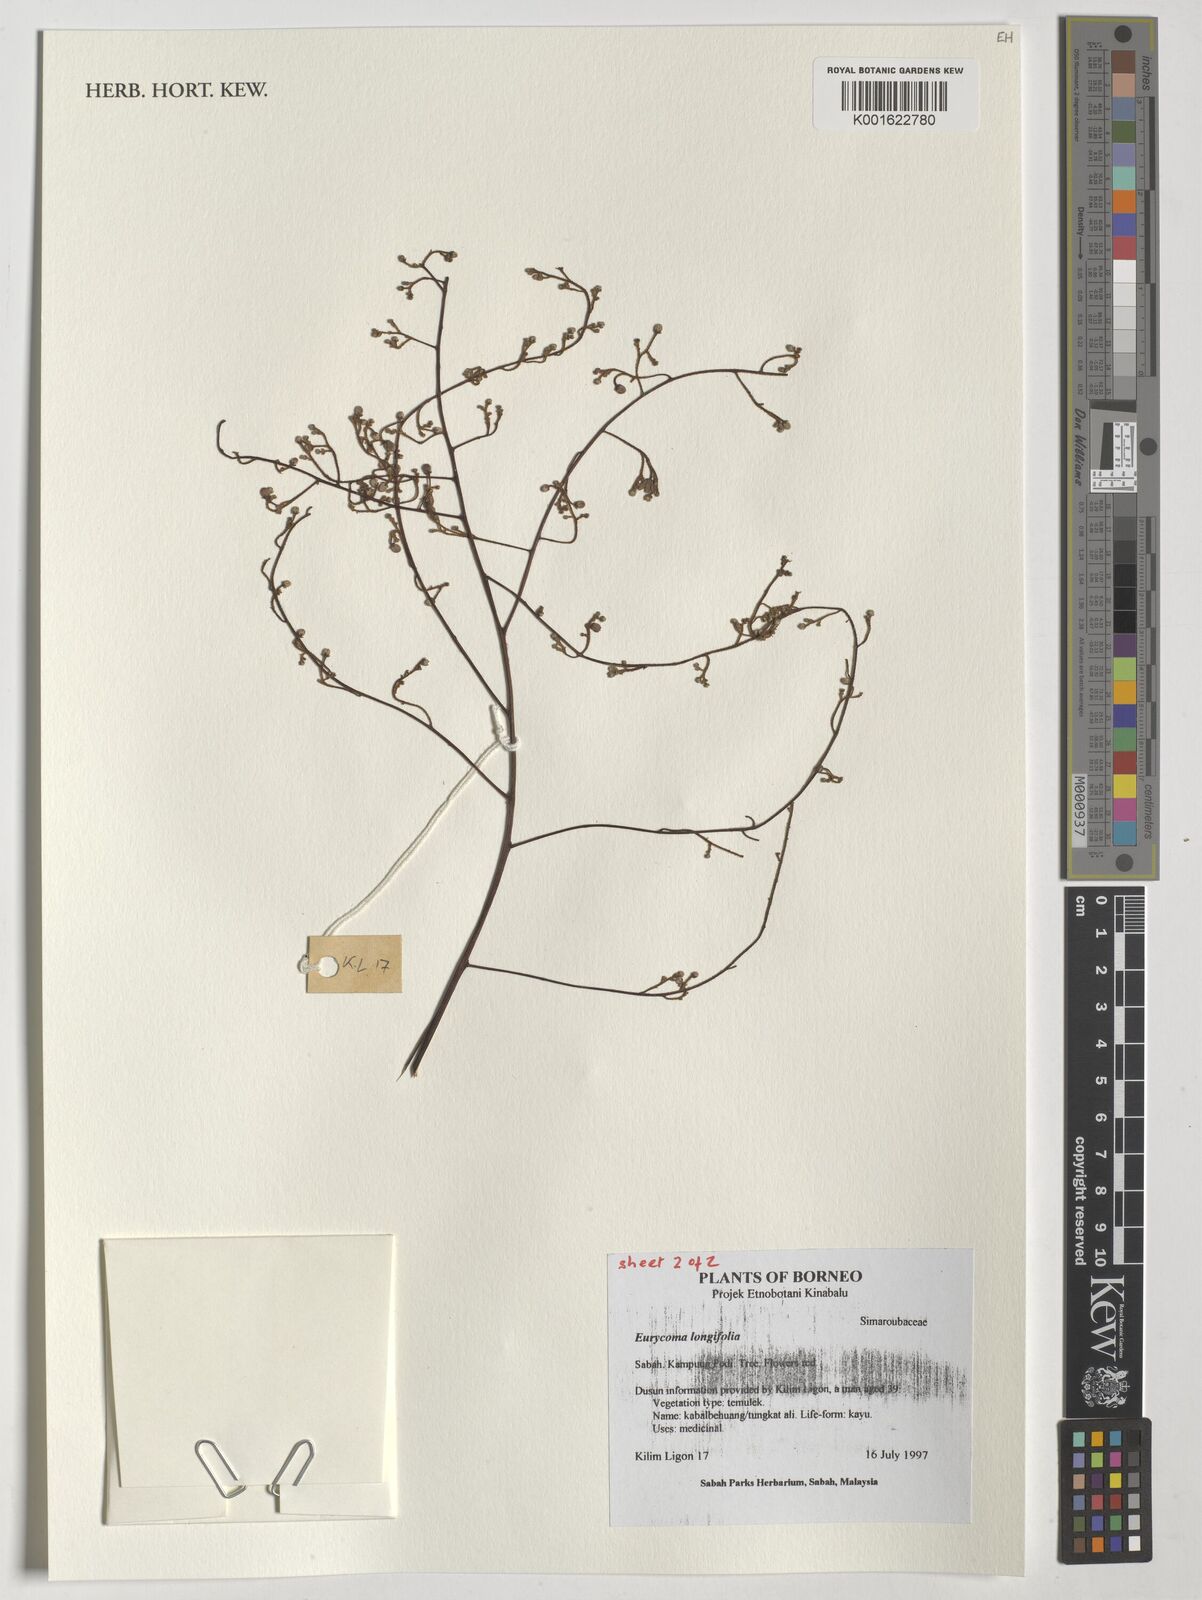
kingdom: Plantae
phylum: Tracheophyta
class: Magnoliopsida
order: Sapindales
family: Simaroubaceae
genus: Eurycoma
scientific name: Eurycoma longifolia
